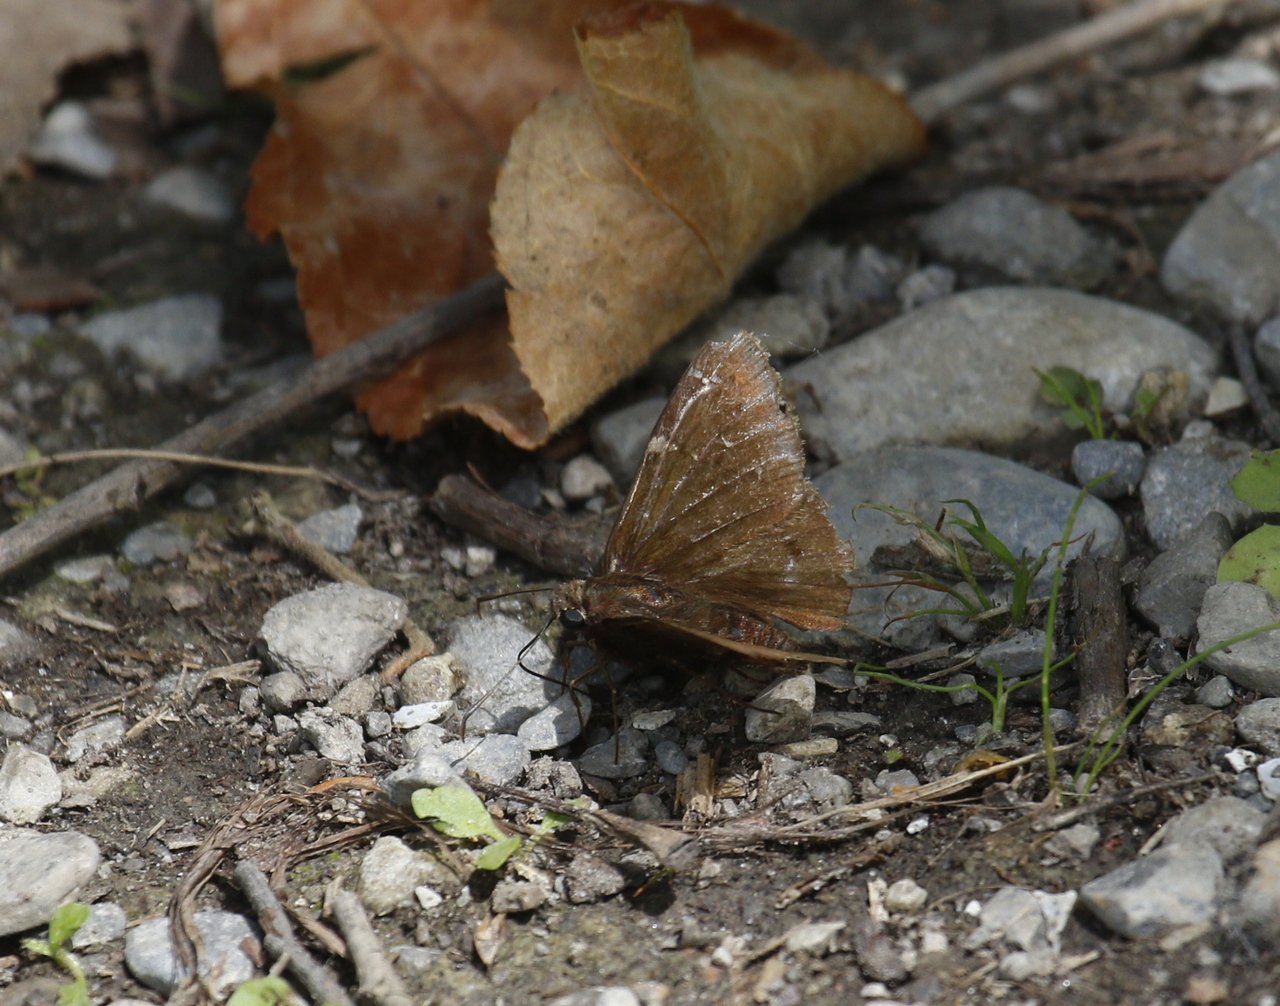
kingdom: Animalia
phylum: Arthropoda
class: Insecta
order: Lepidoptera
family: Hesperiidae
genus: Autochton
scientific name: Autochton
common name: Northern Cloudywing
